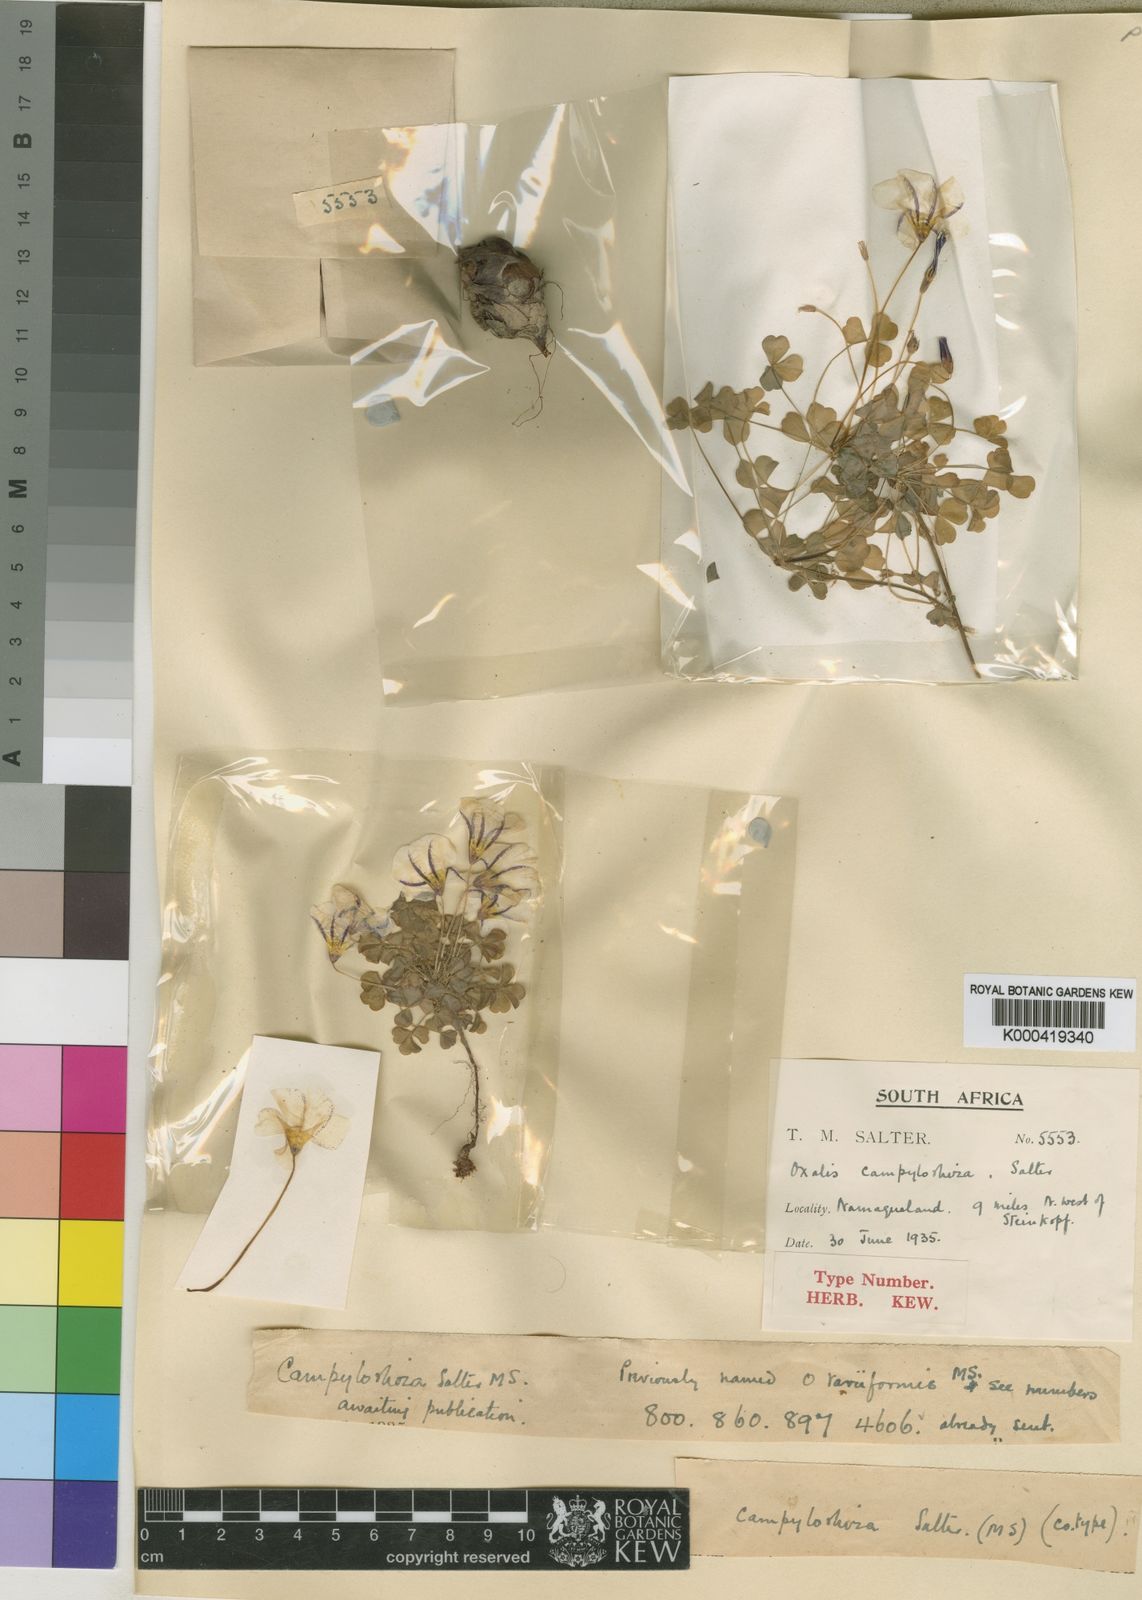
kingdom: Plantae
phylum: Tracheophyta
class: Magnoliopsida
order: Oxalidales
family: Oxalidaceae
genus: Oxalis
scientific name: Oxalis campylorhiza
